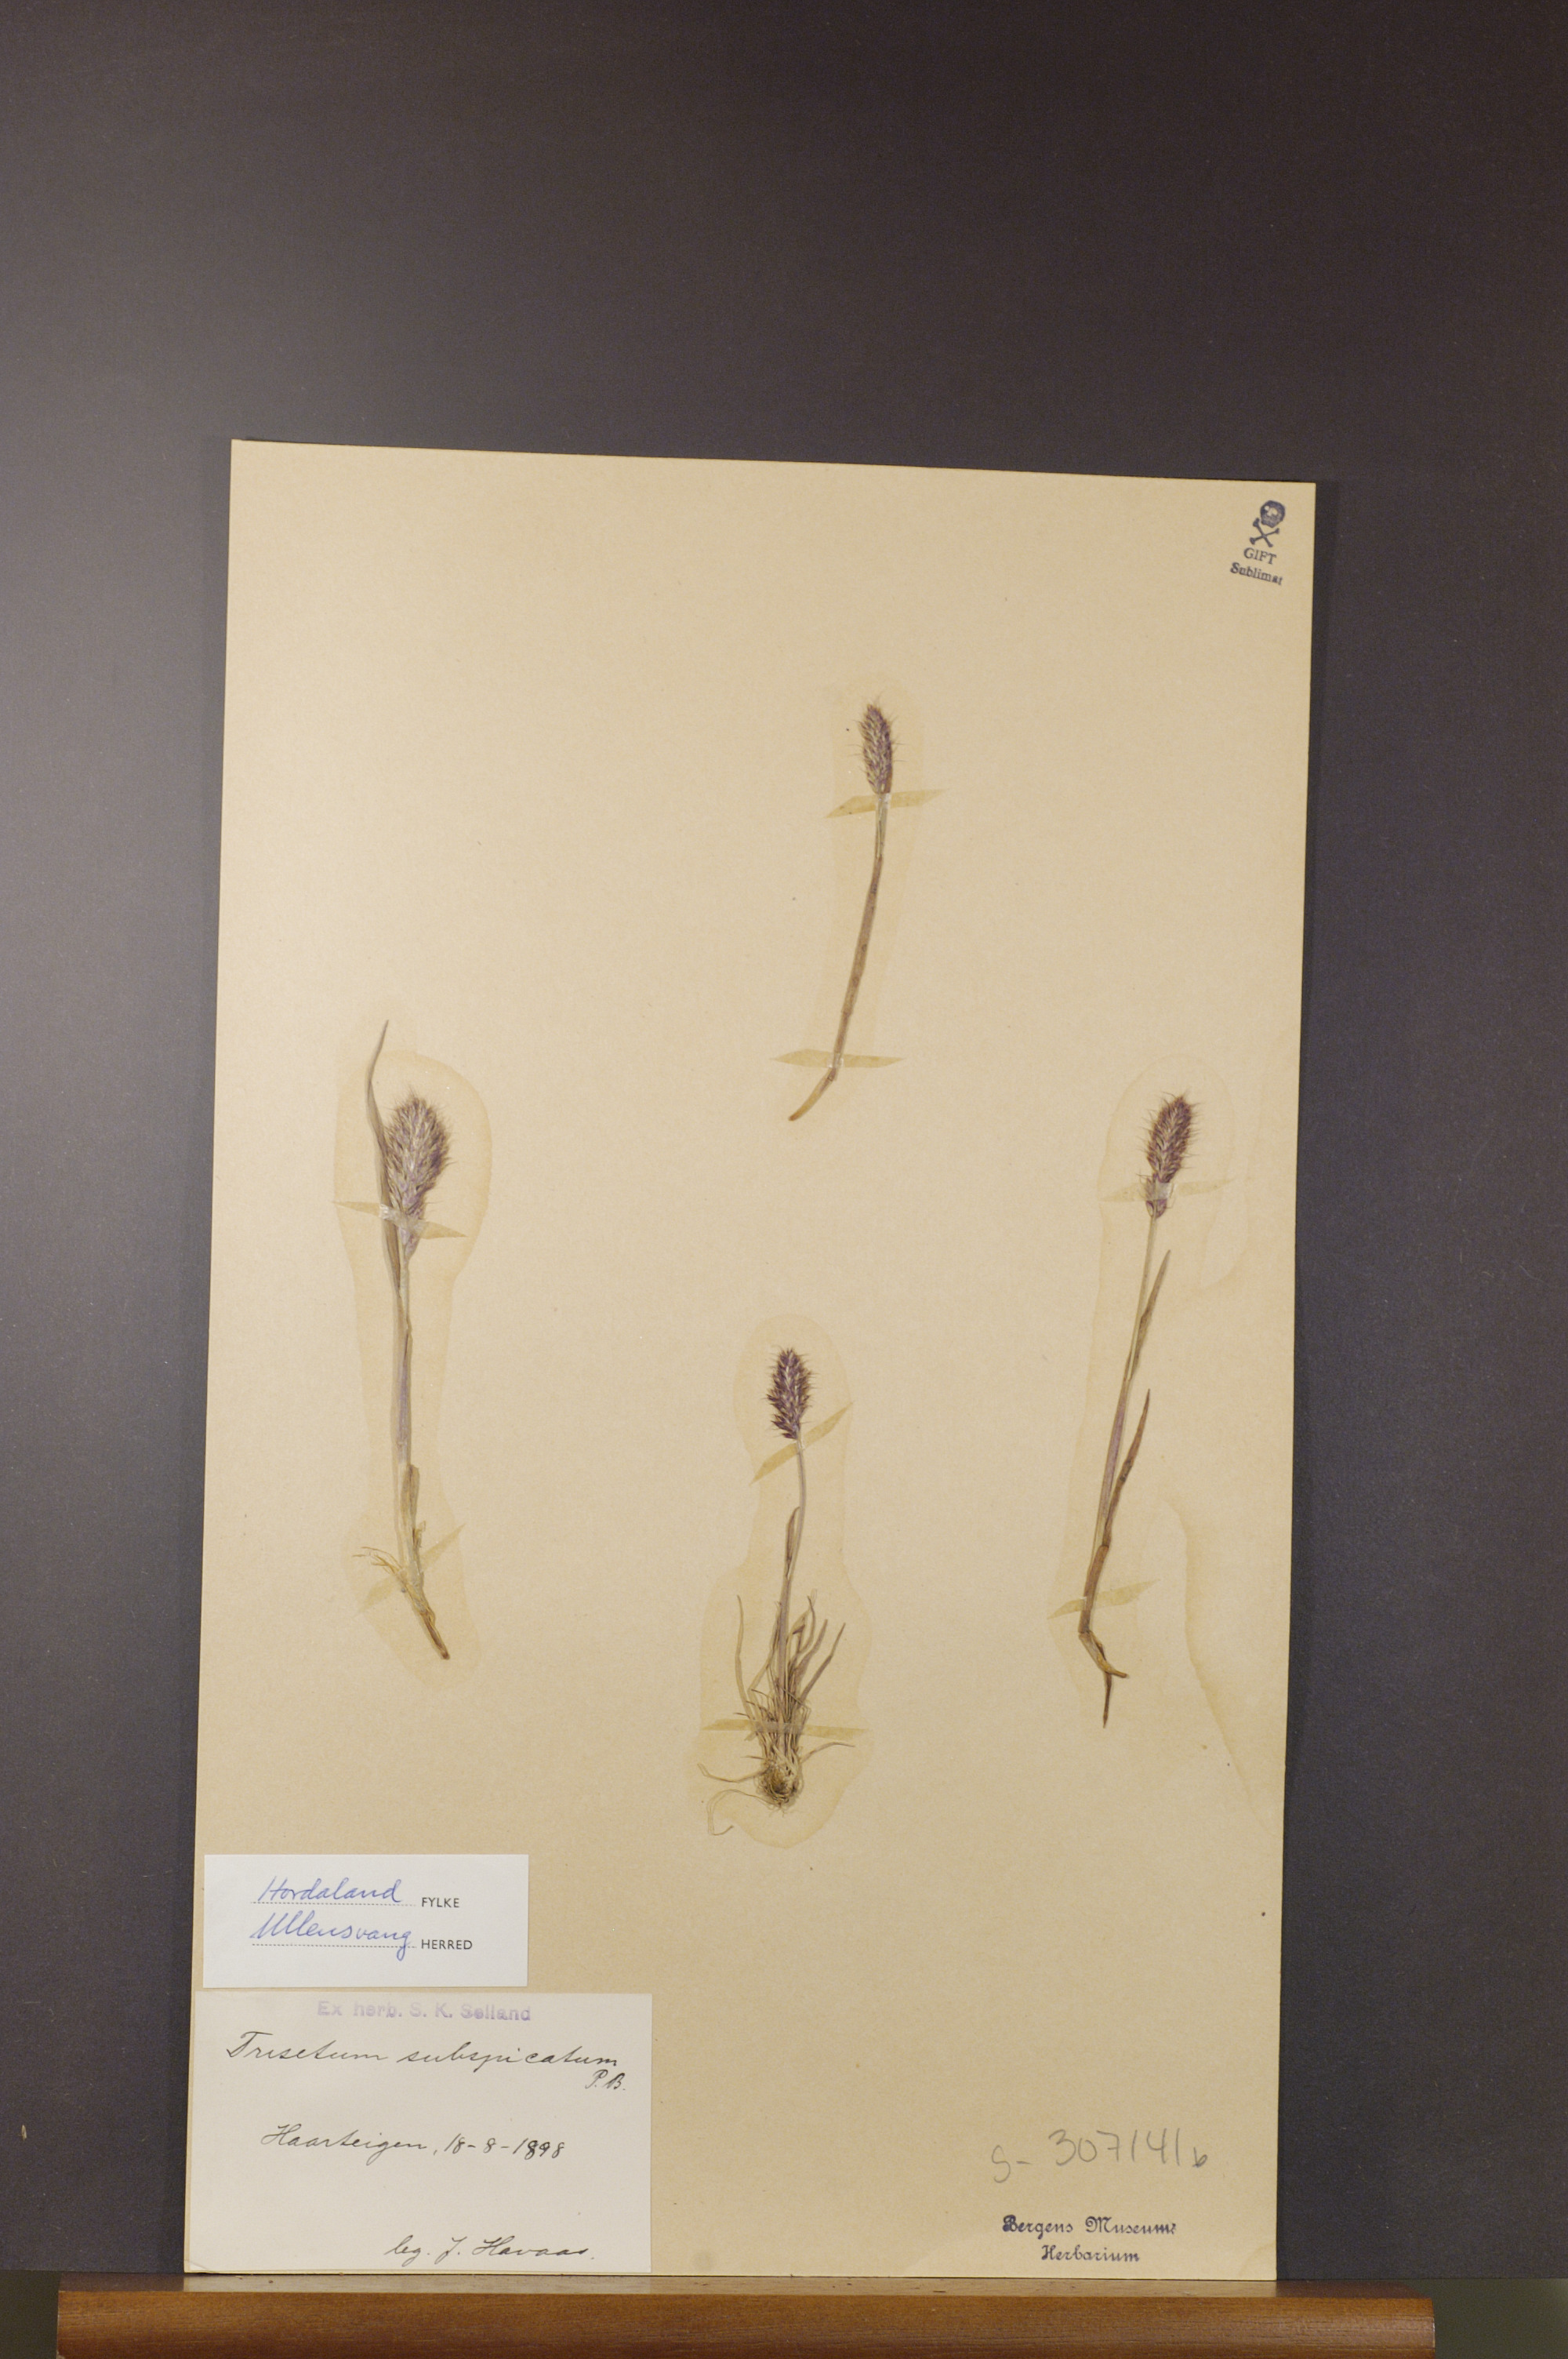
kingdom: Plantae
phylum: Tracheophyta
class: Liliopsida
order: Poales
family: Poaceae
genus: Koeleria
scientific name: Koeleria spicata
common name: Mountain trisetum
